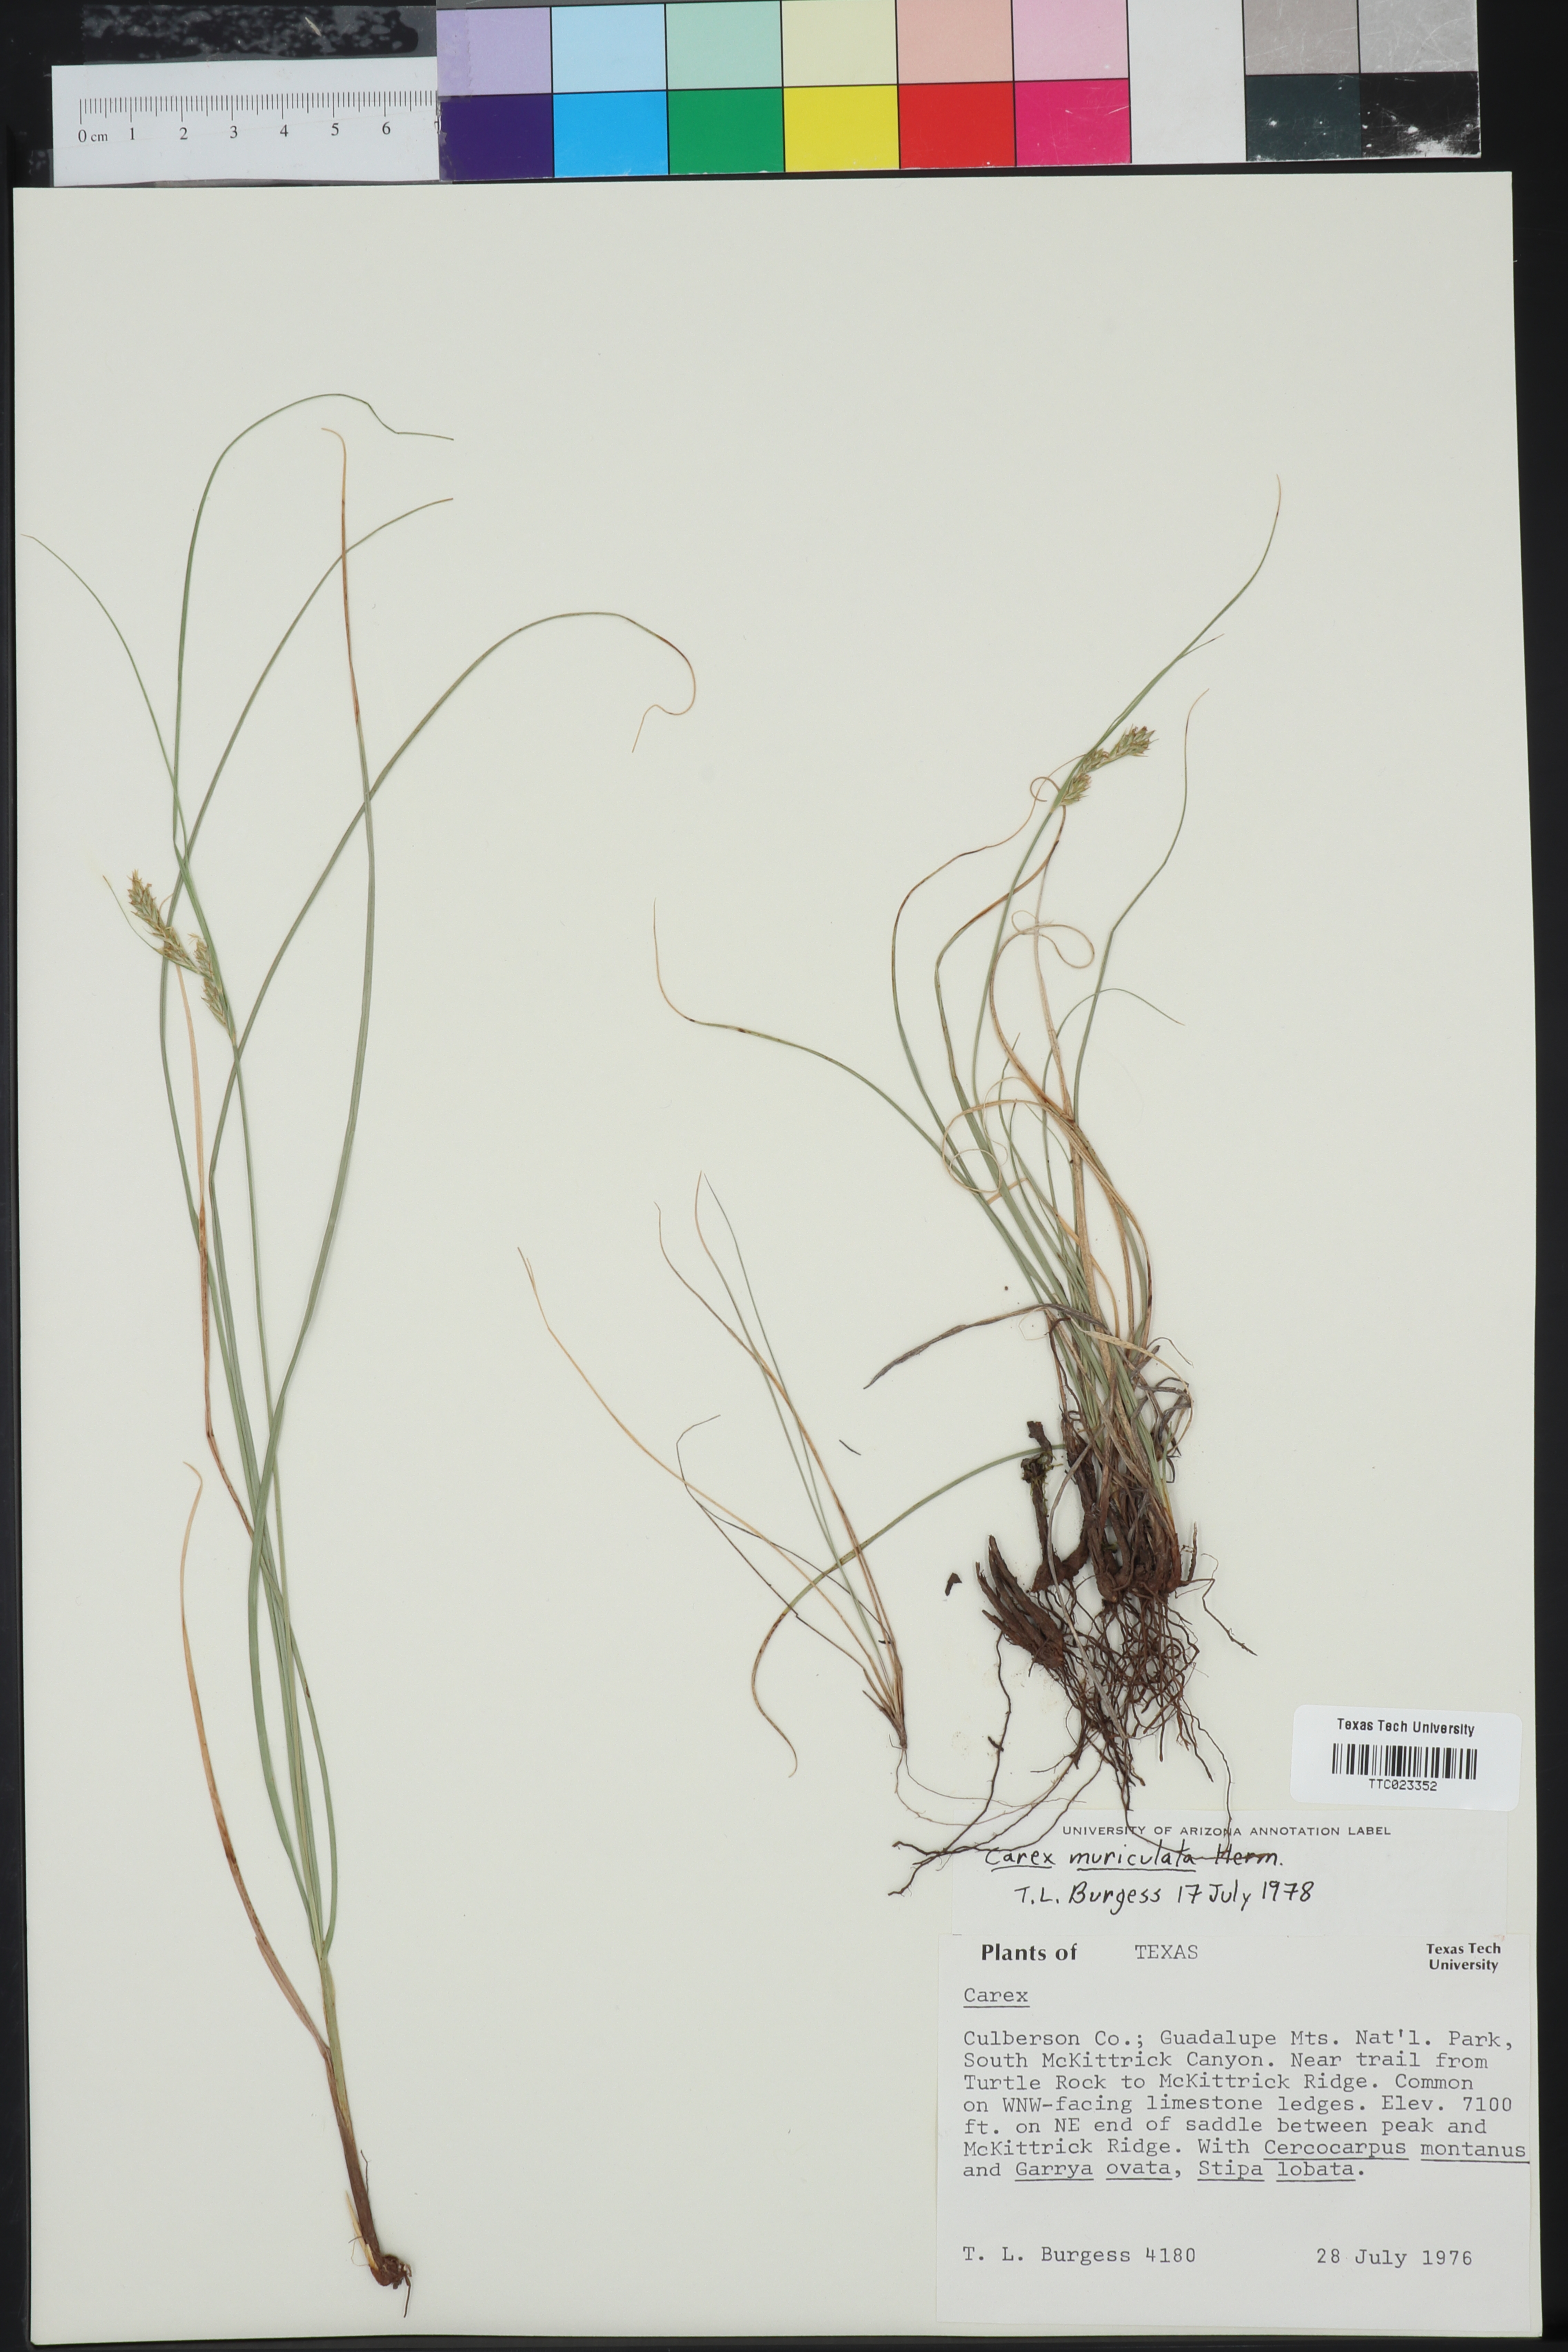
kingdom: Plantae
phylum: Tracheophyta
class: Liliopsida
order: Poales
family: Cyperaceae
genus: Carex
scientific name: Carex muriculata
